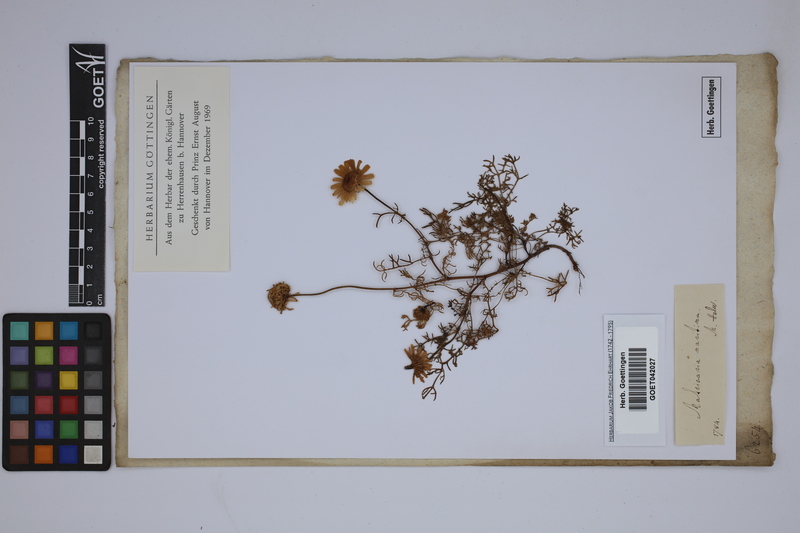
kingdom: Plantae
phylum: Tracheophyta
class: Magnoliopsida
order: Asterales
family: Asteraceae
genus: Tripleurospermum
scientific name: Tripleurospermum maritimum
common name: Sea mayweed
